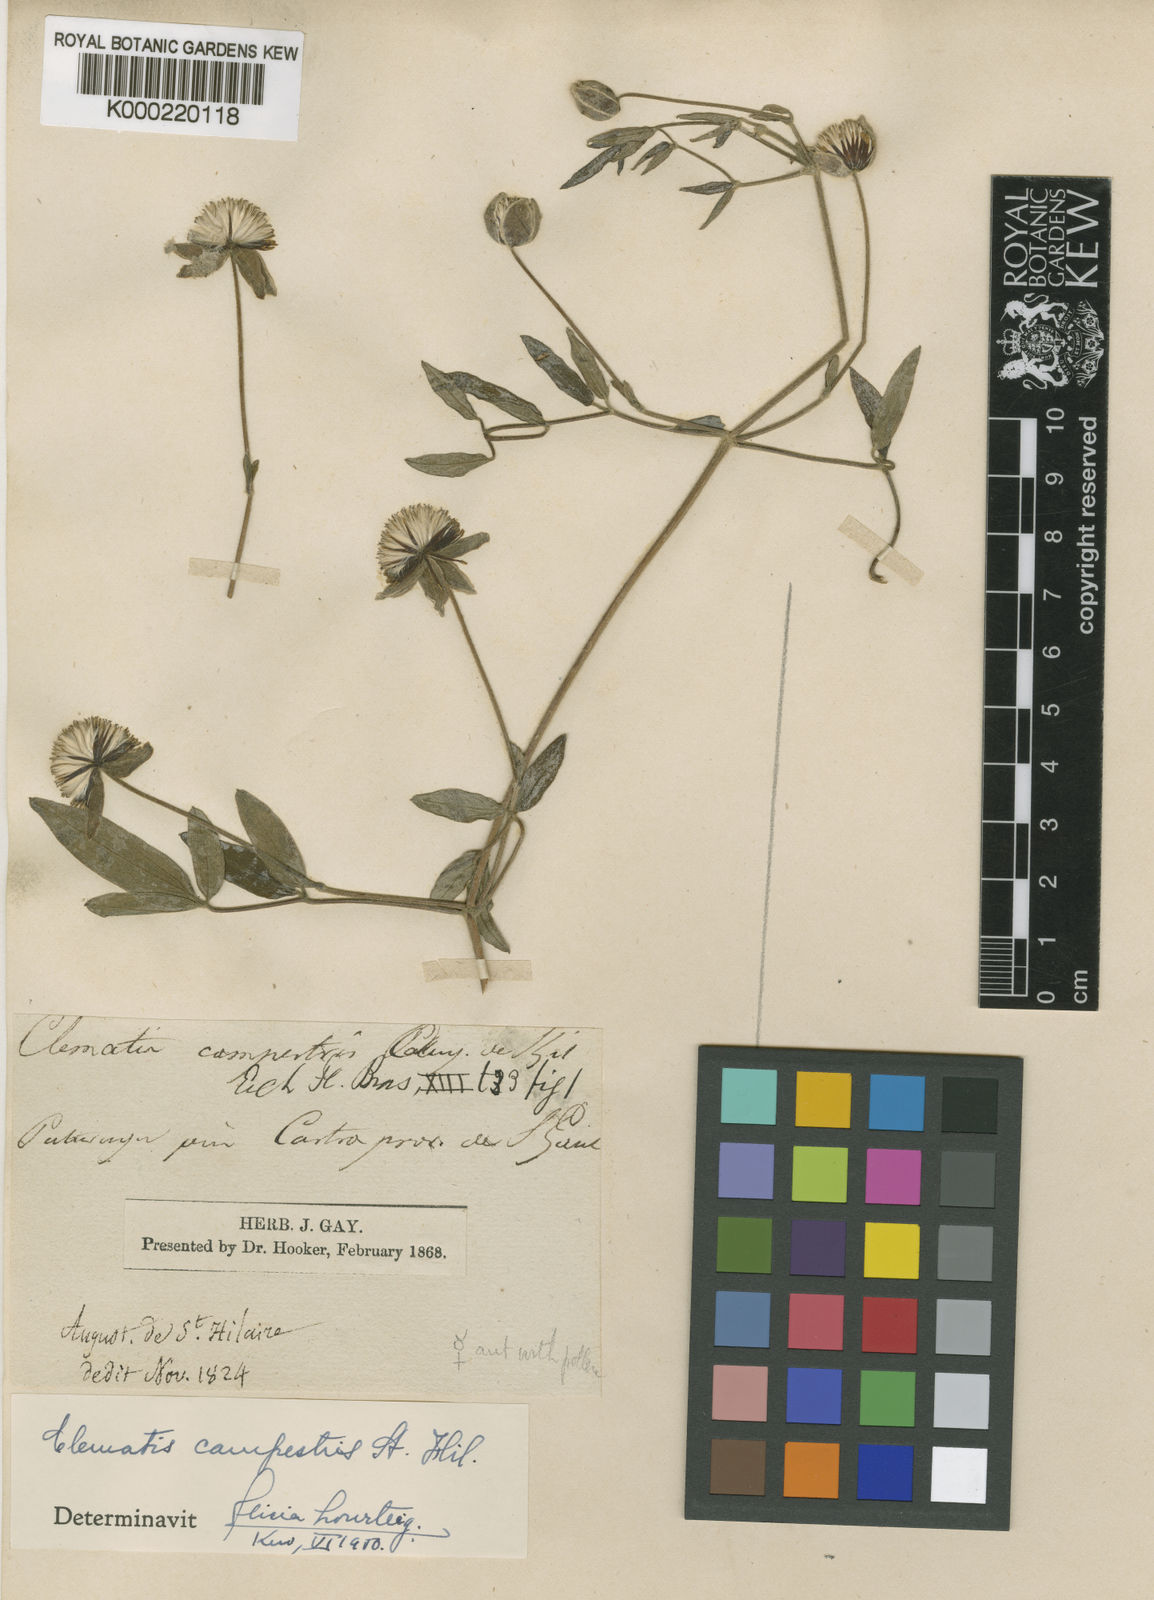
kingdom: Plantae
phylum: Tracheophyta
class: Magnoliopsida
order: Ranunculales
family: Ranunculaceae
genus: Clematis
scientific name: Clematis campestris
